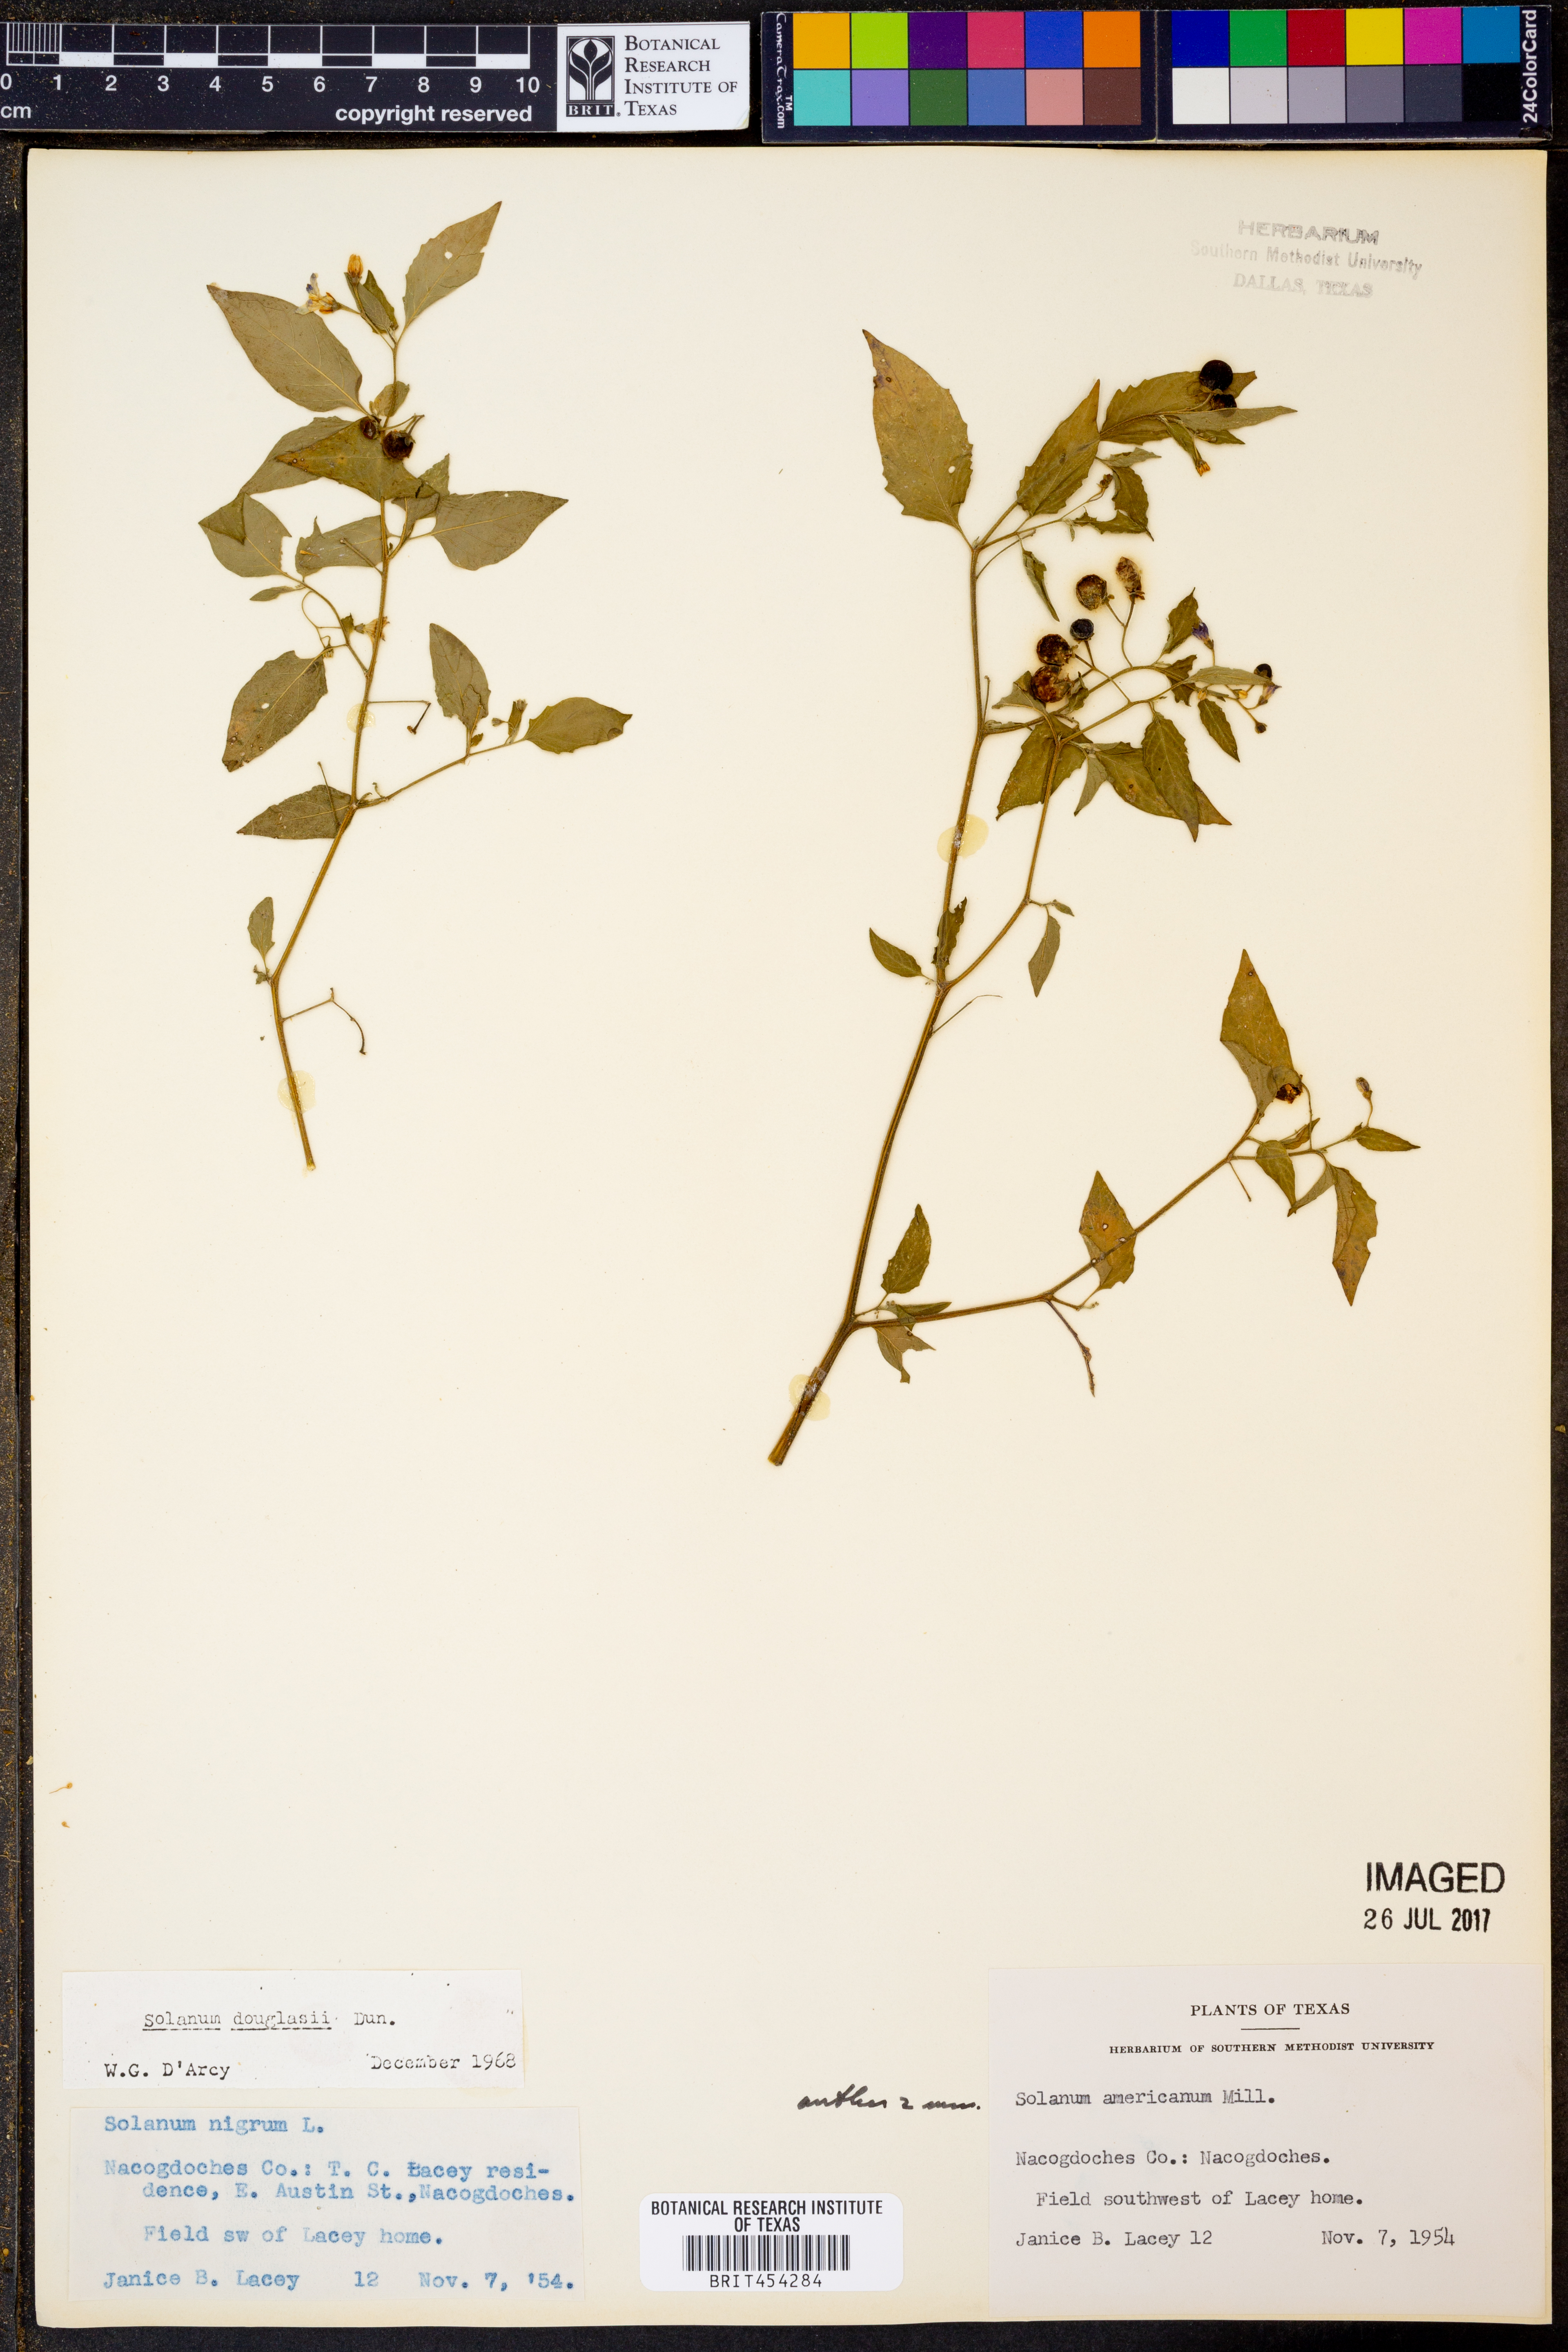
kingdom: Plantae
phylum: Tracheophyta
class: Magnoliopsida
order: Solanales
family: Solanaceae
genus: Solanum
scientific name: Solanum douglasii
